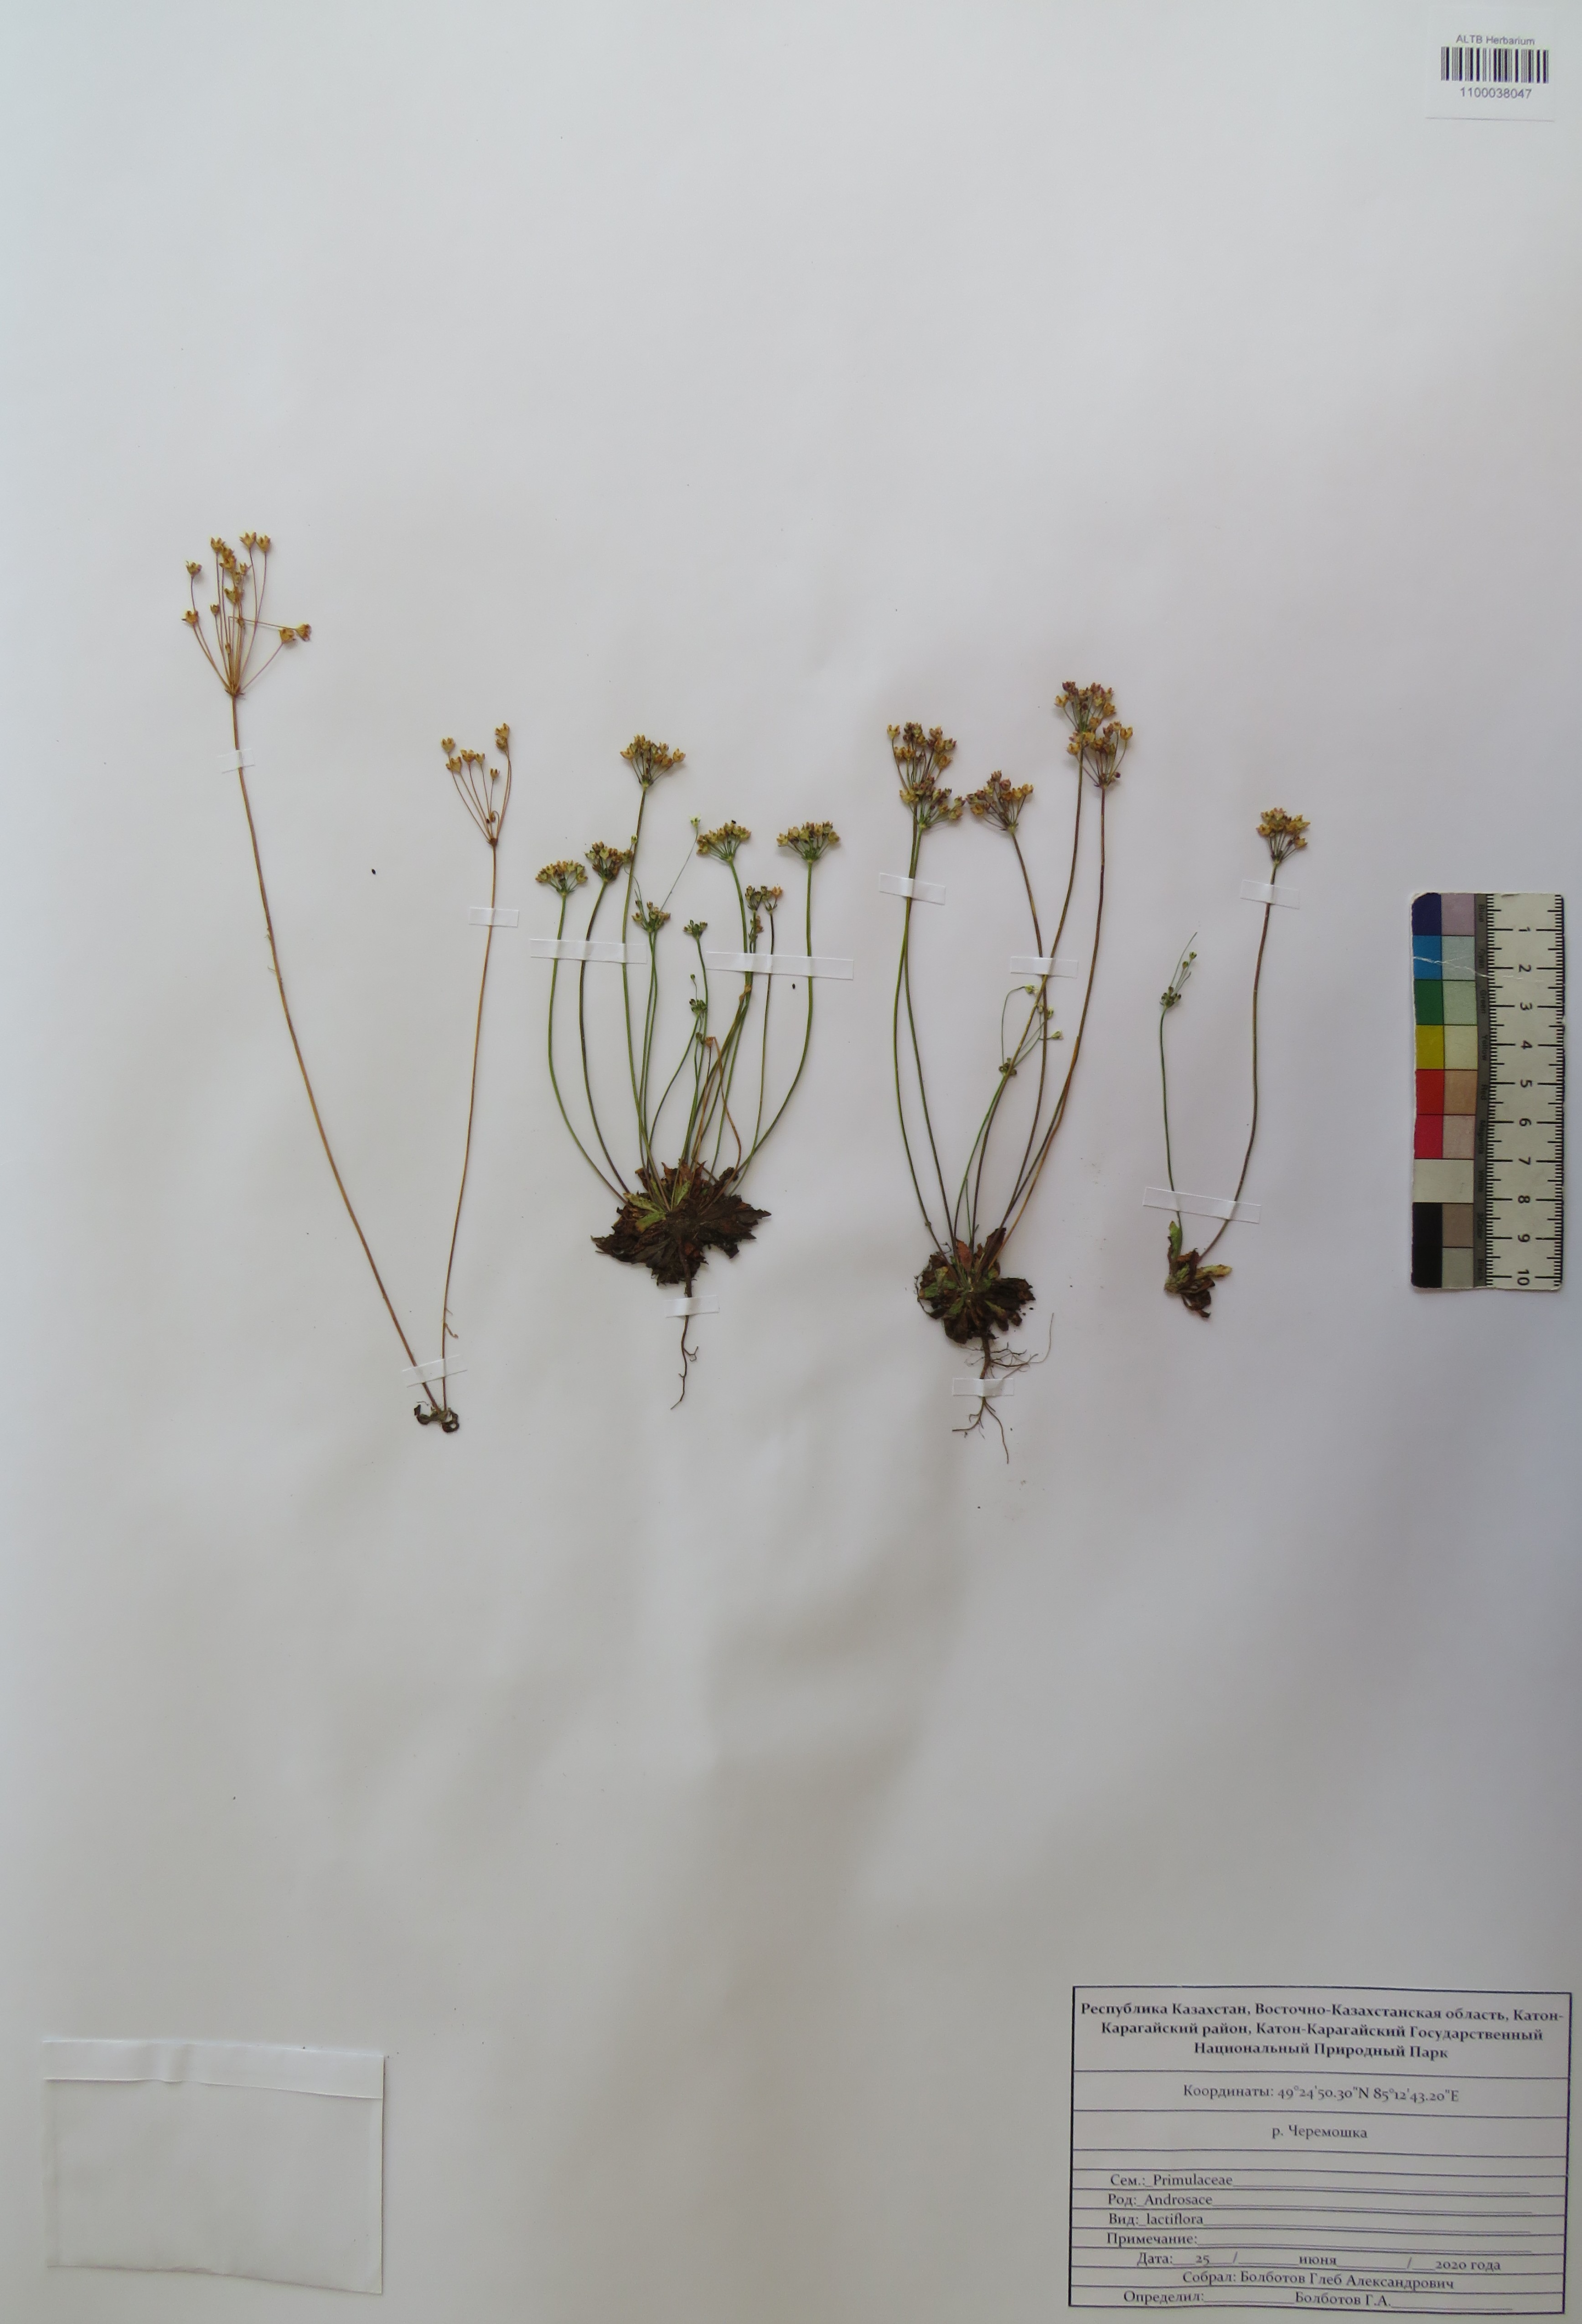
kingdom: Plantae
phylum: Tracheophyta
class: Magnoliopsida
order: Ericales
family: Primulaceae
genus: Androsace
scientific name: Androsace lactiflora
